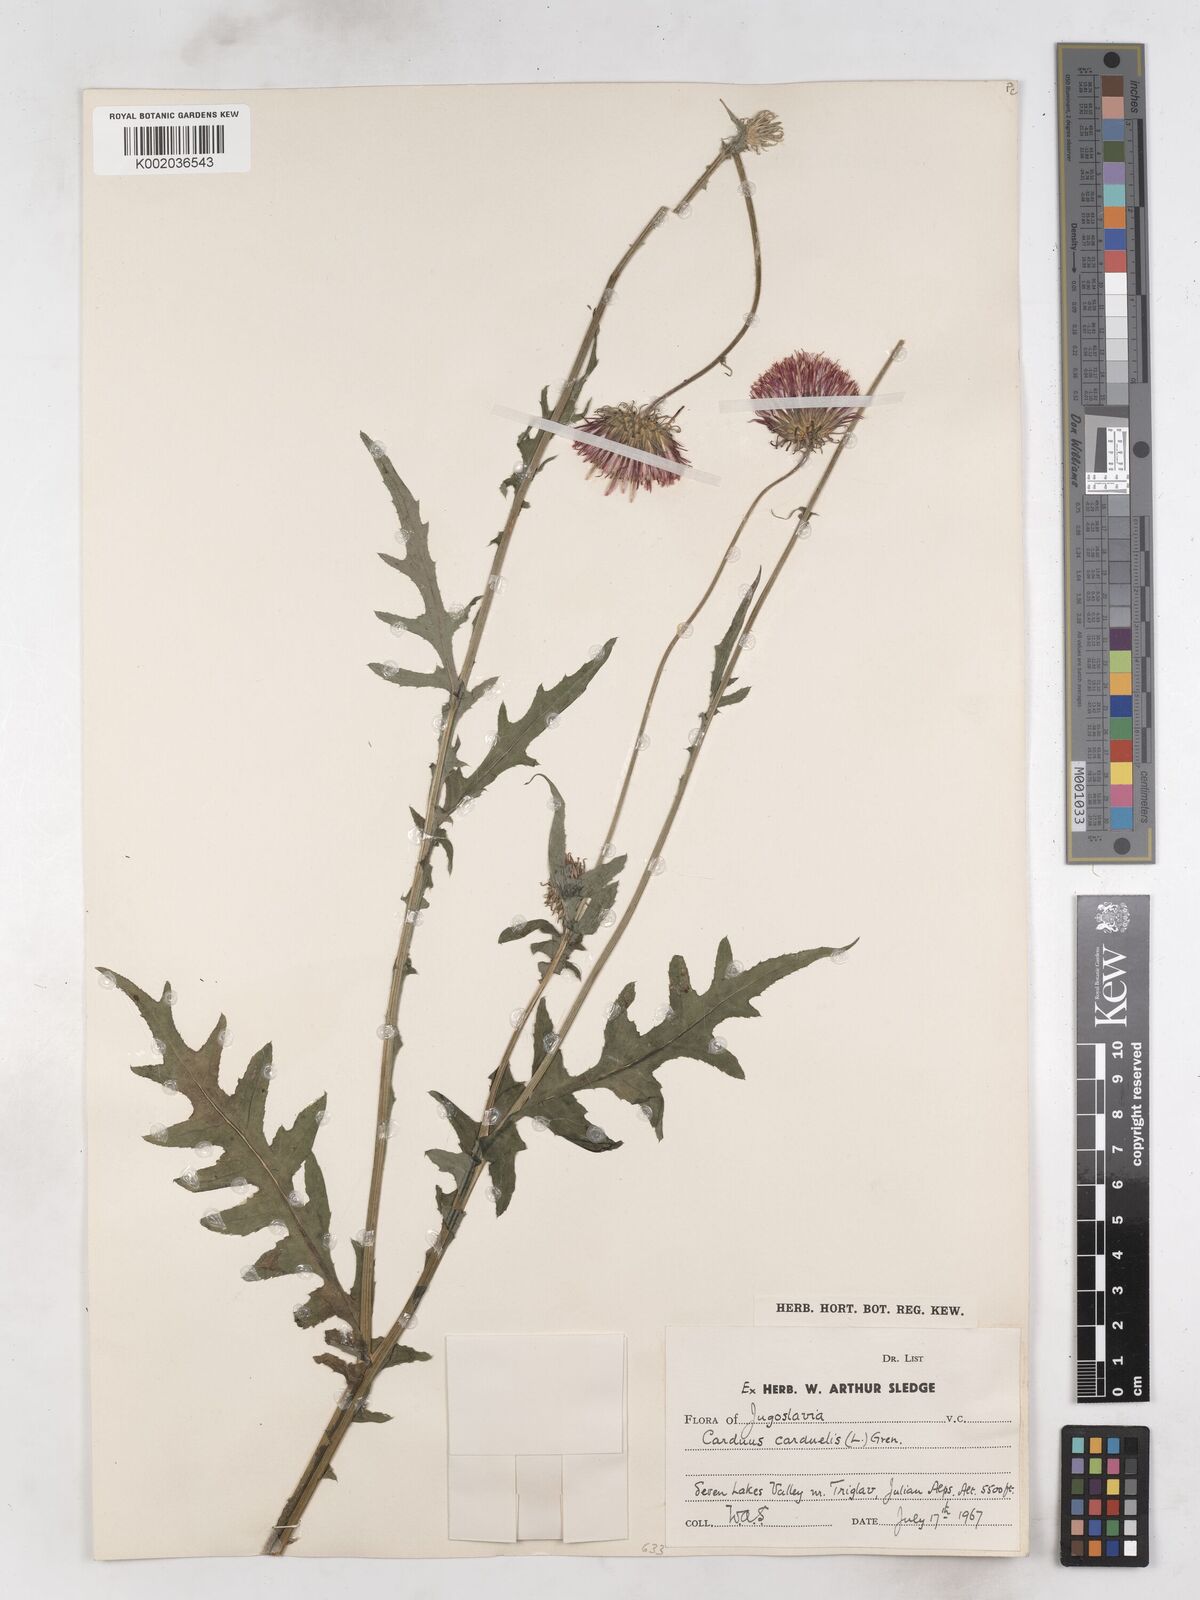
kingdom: Plantae
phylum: Tracheophyta
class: Magnoliopsida
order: Asterales
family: Asteraceae
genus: Carduus
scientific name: Carduus carduelis
